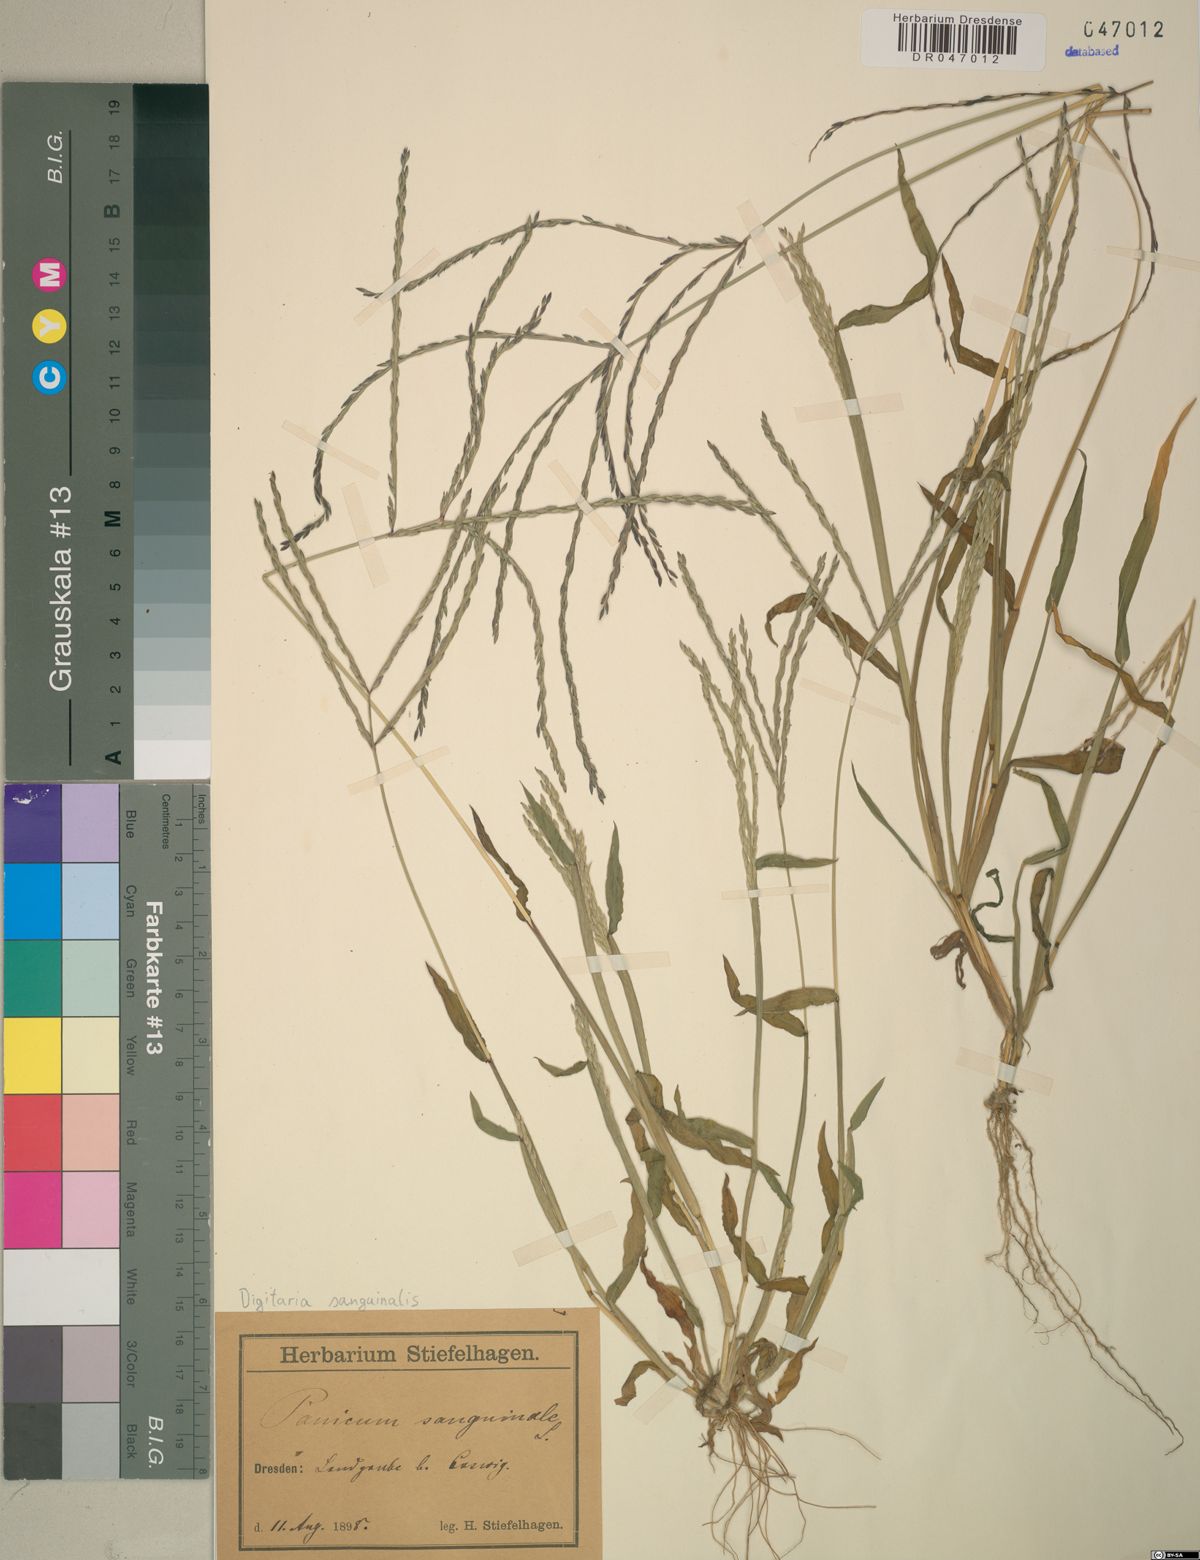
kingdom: Plantae
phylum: Tracheophyta
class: Liliopsida
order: Poales
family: Poaceae
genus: Digitaria
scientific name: Digitaria sanguinalis
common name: Hairy crabgrass
